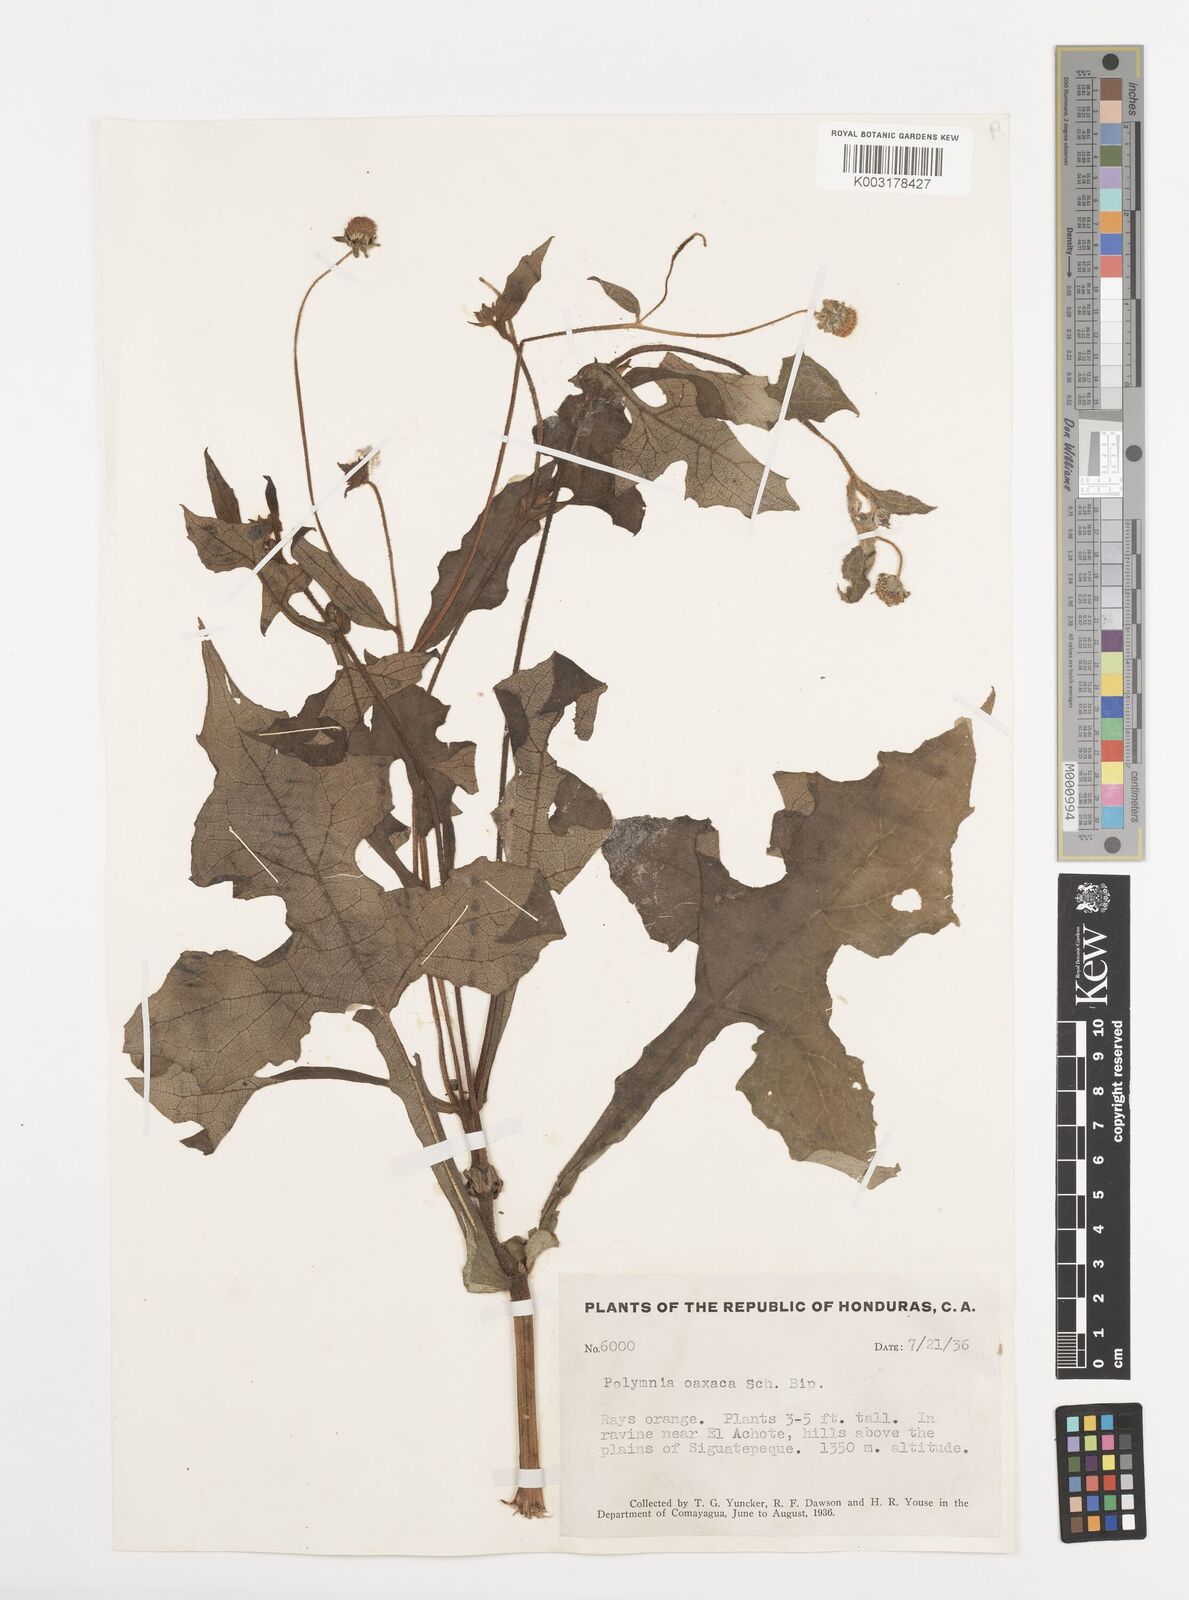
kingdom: Plantae
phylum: Tracheophyta
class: Magnoliopsida
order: Asterales
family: Asteraceae
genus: Smallanthus
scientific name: Smallanthus oaxacanus
